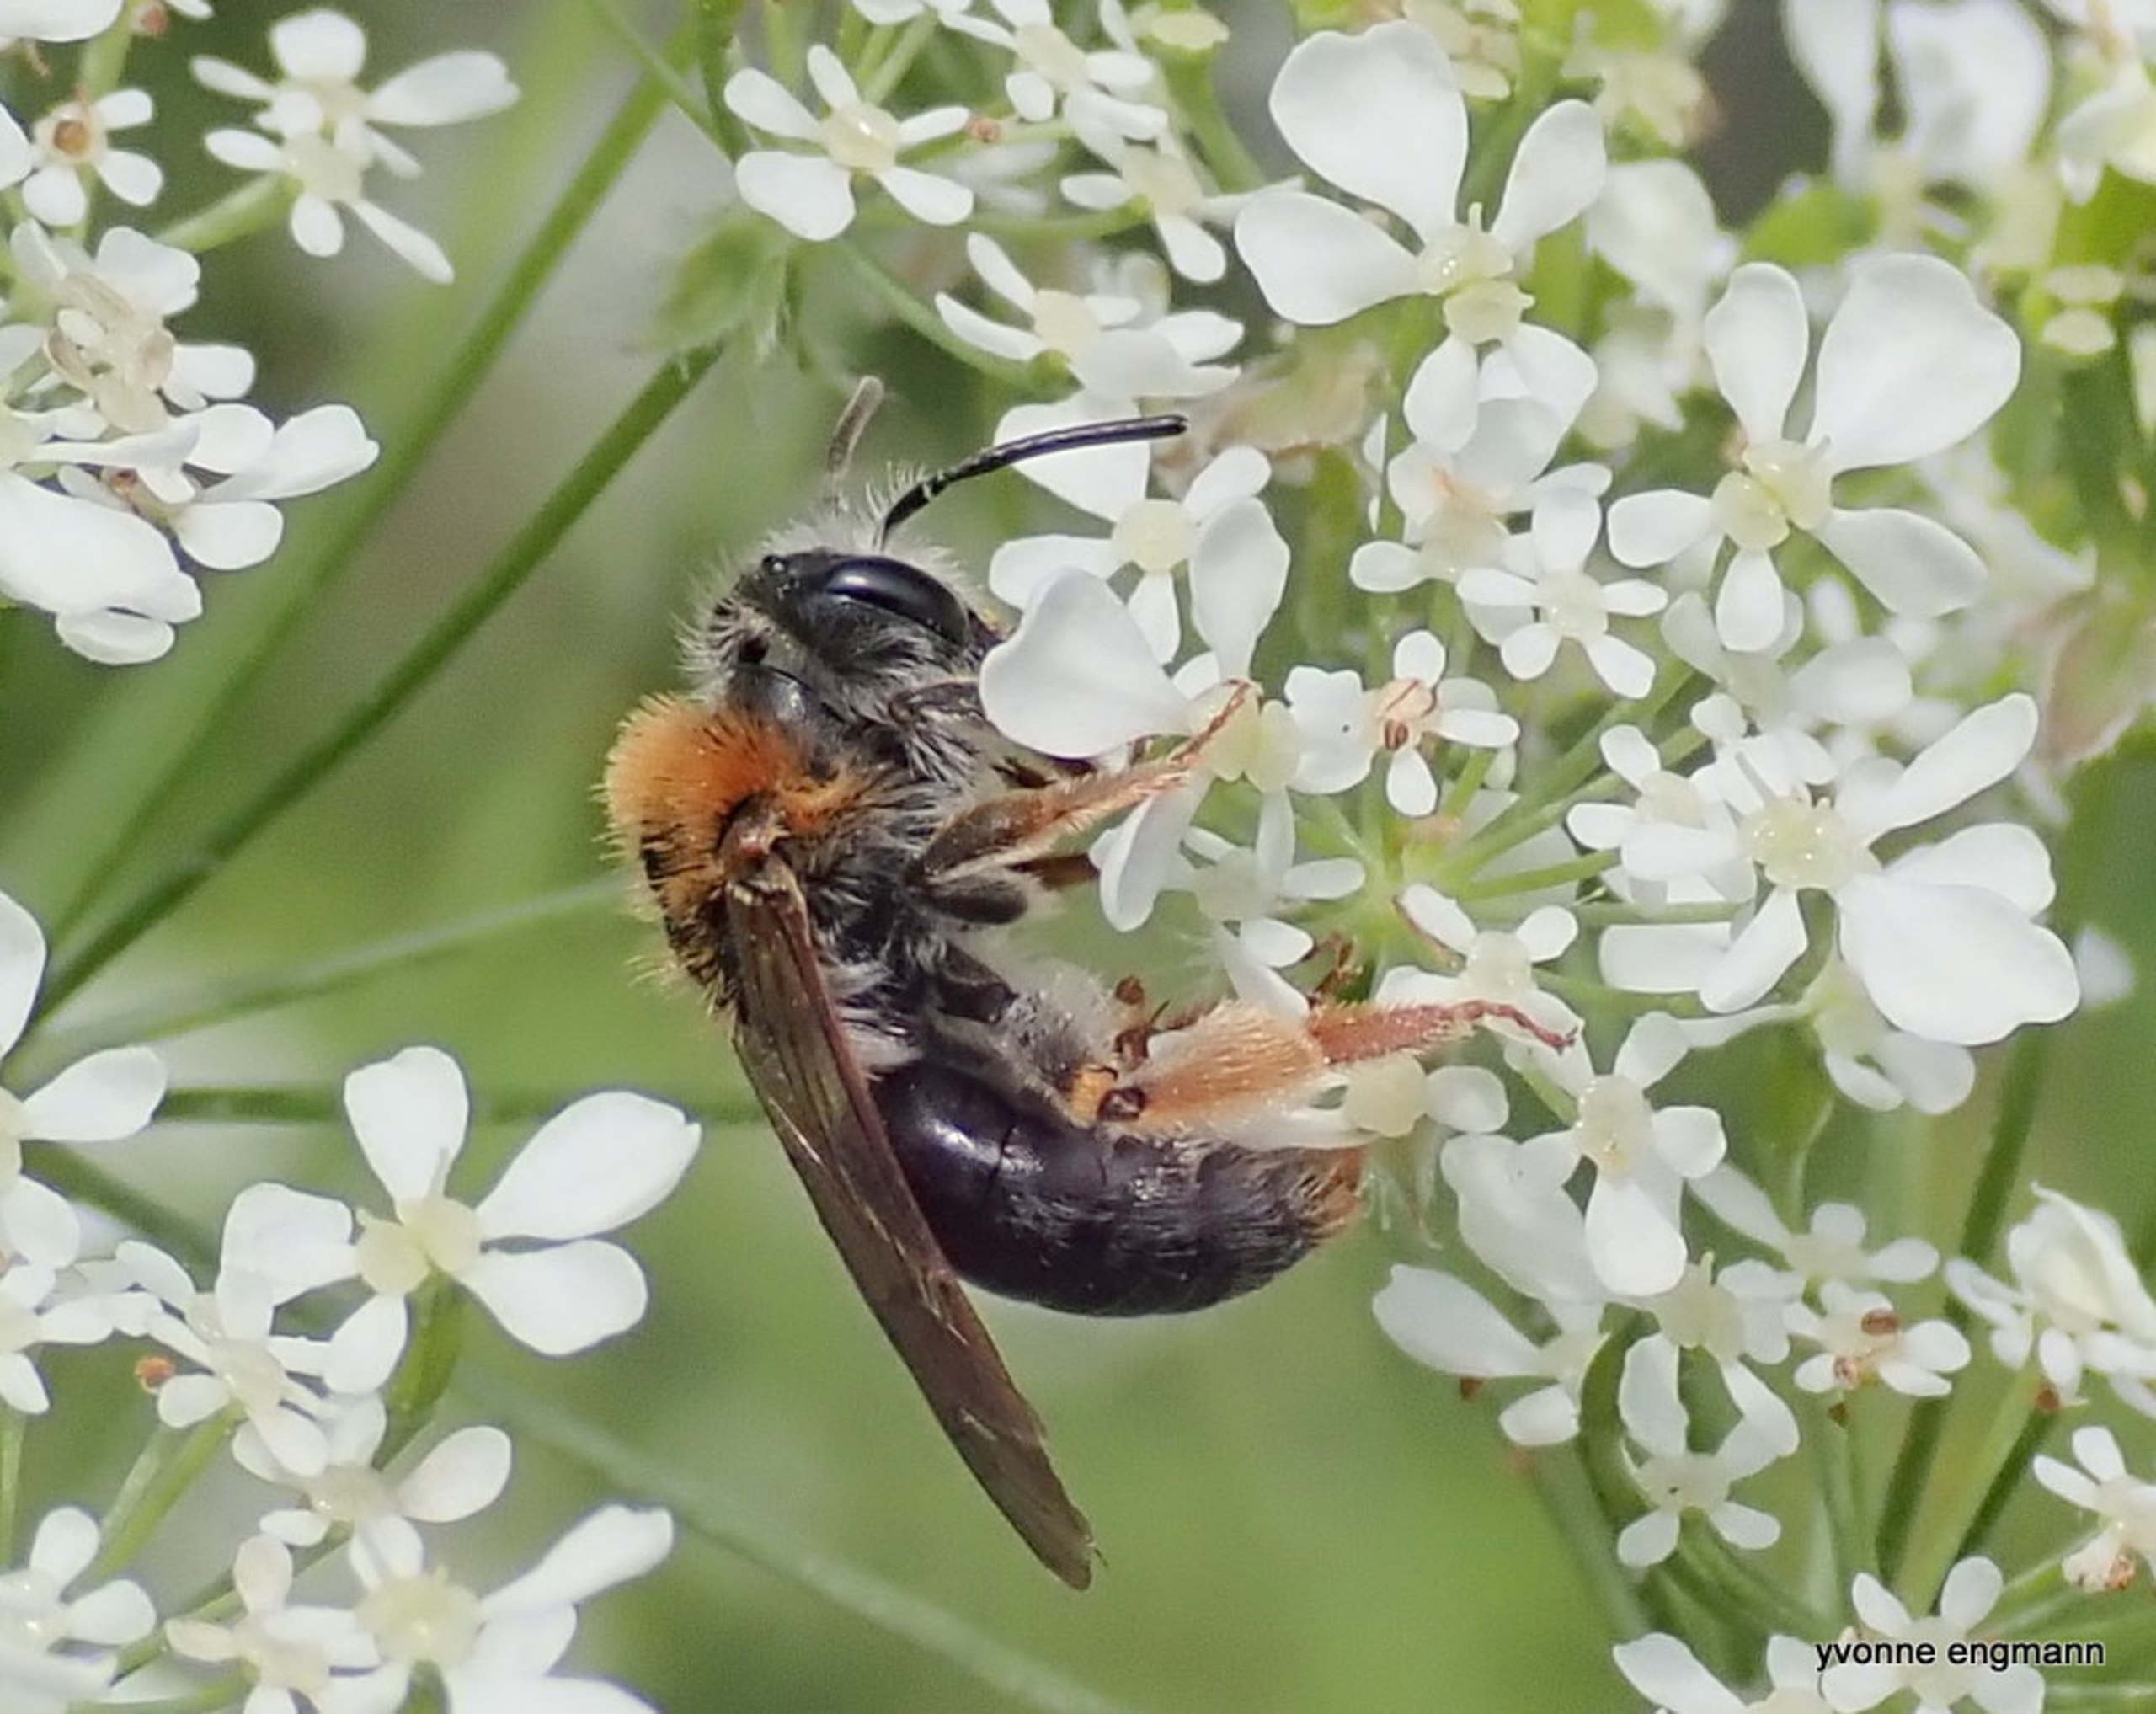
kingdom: Animalia
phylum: Arthropoda
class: Insecta
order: Hymenoptera
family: Andrenidae
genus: Andrena
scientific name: Andrena haemorrhoa
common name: Havejordbi
